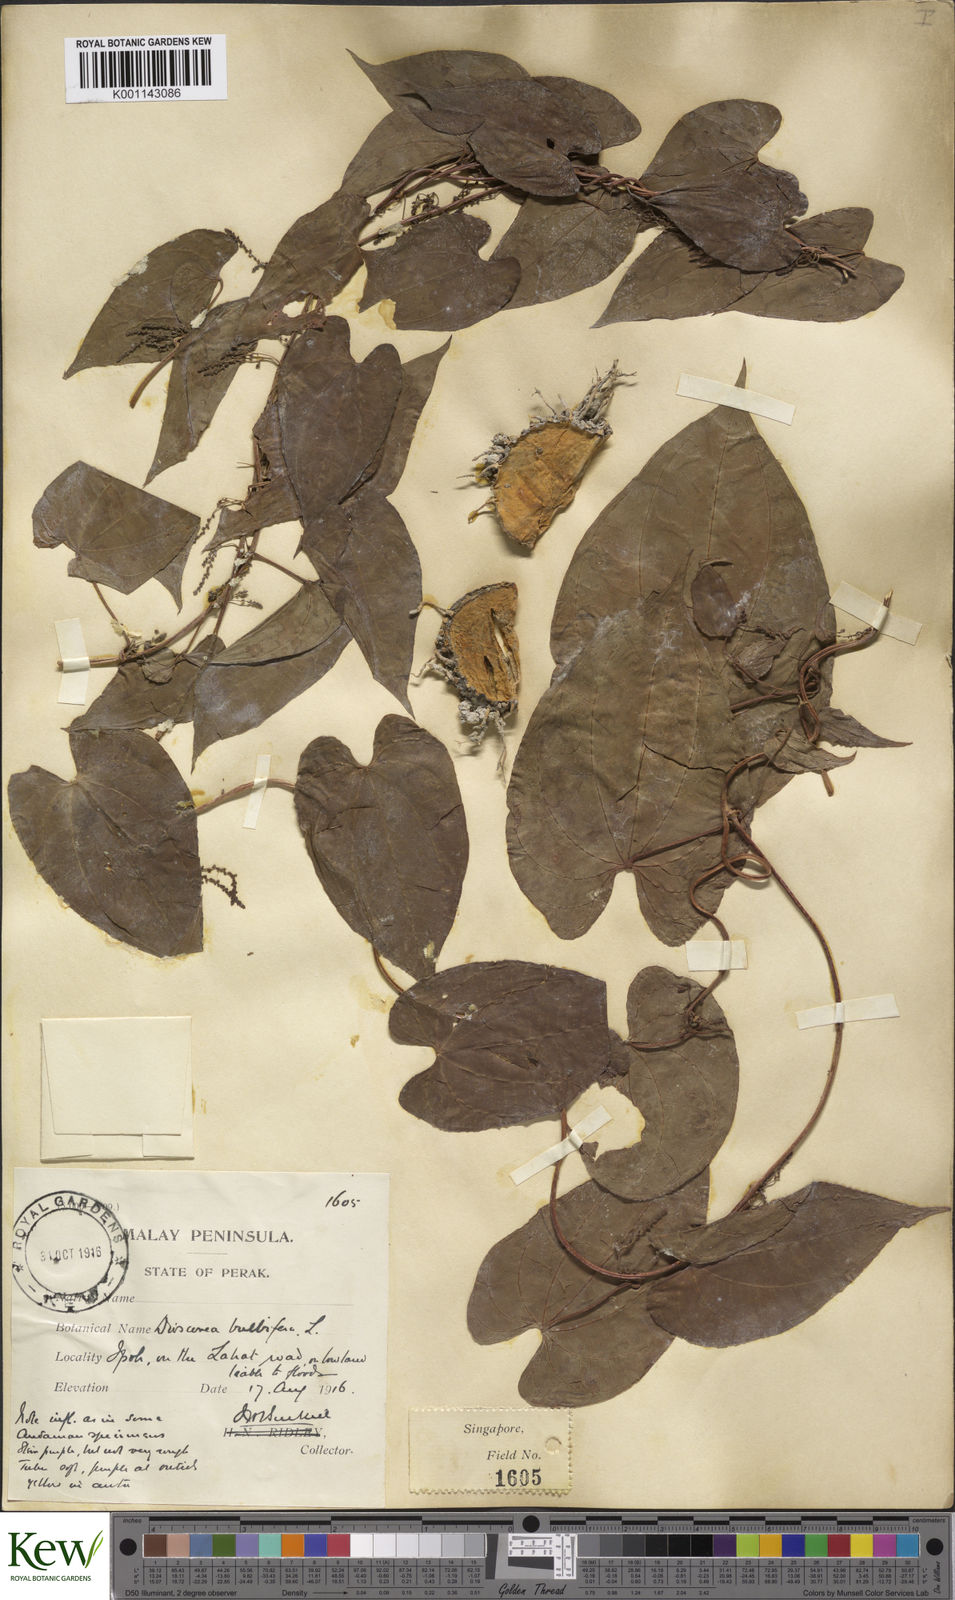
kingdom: Plantae
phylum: Tracheophyta
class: Liliopsida
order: Dioscoreales
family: Dioscoreaceae
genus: Dioscorea
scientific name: Dioscorea bulbifera
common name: Air yam
